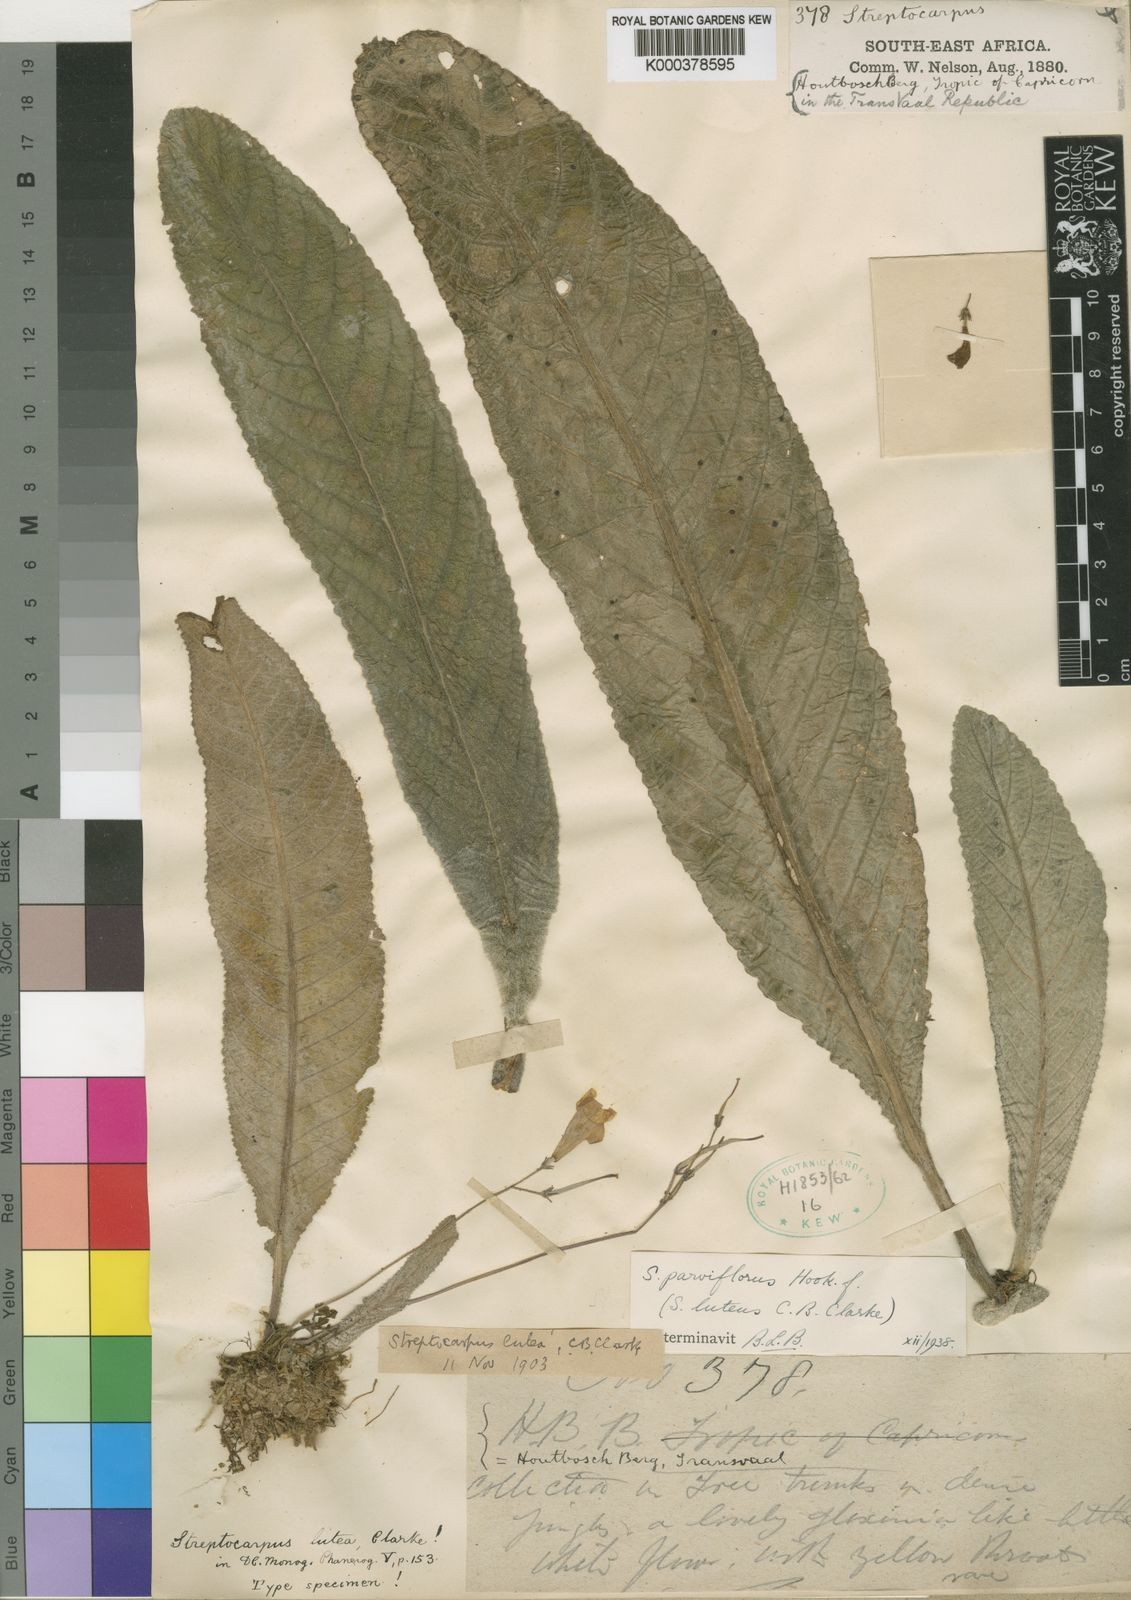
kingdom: Plantae
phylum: Tracheophyta
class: Magnoliopsida
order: Lamiales
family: Gesneriaceae
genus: Streptocarpus
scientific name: Streptocarpus parviflorus
